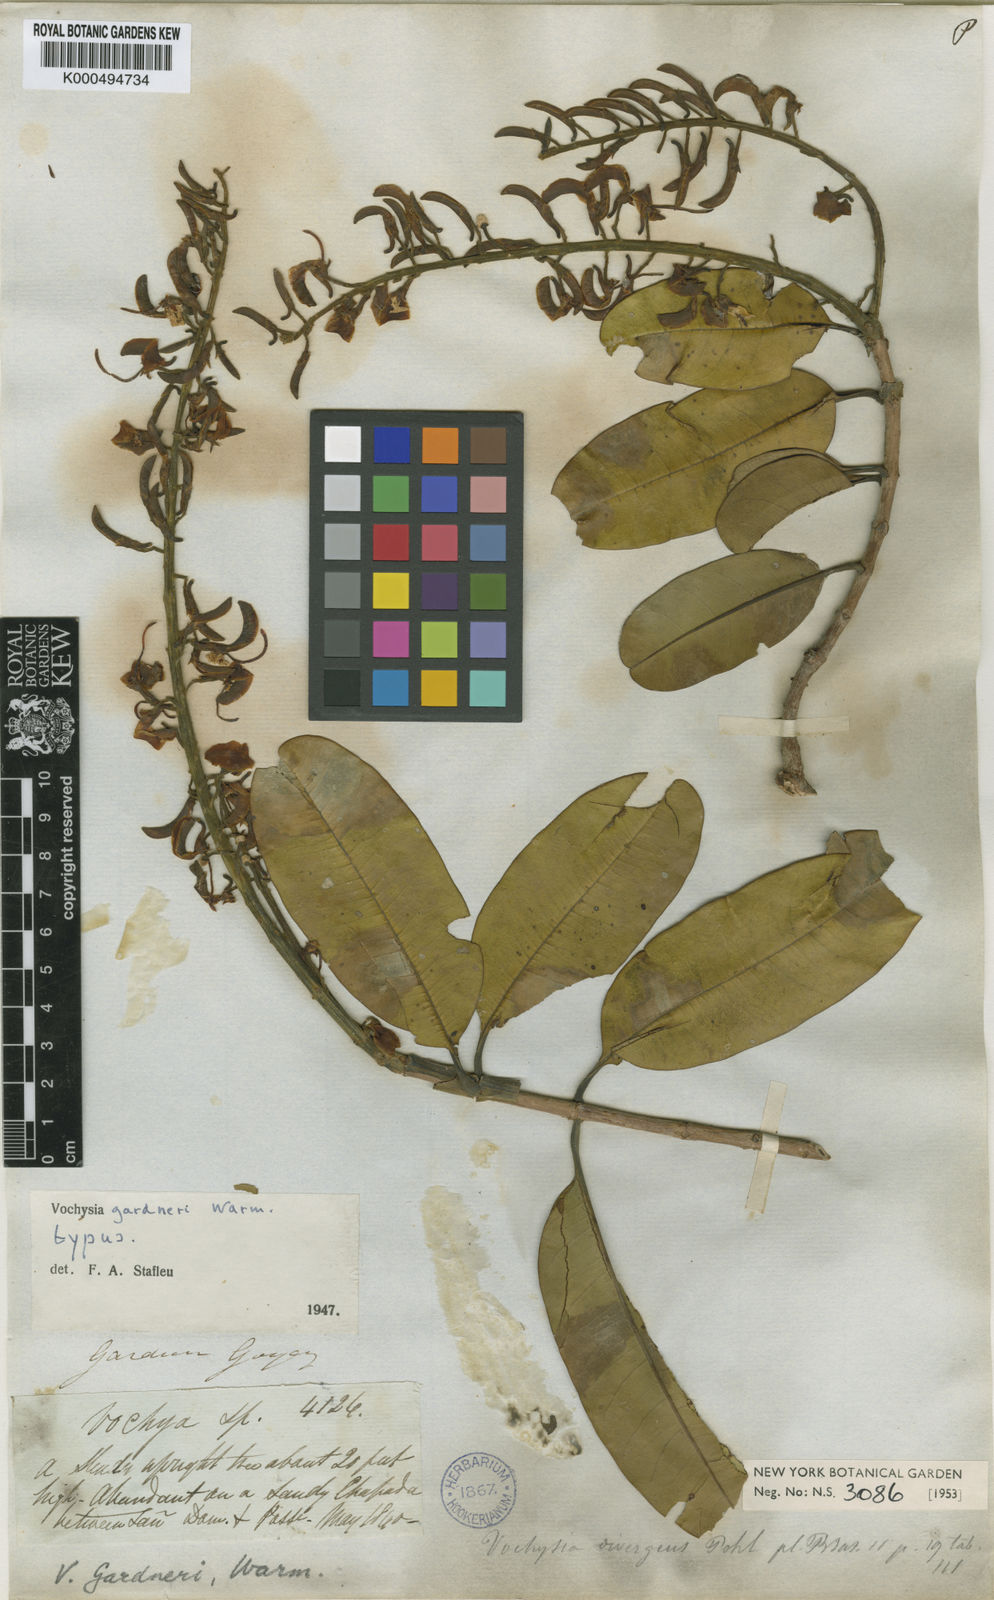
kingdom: Plantae
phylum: Tracheophyta
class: Magnoliopsida
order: Myrtales
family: Vochysiaceae
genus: Vochysia
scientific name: Vochysia gardneri
